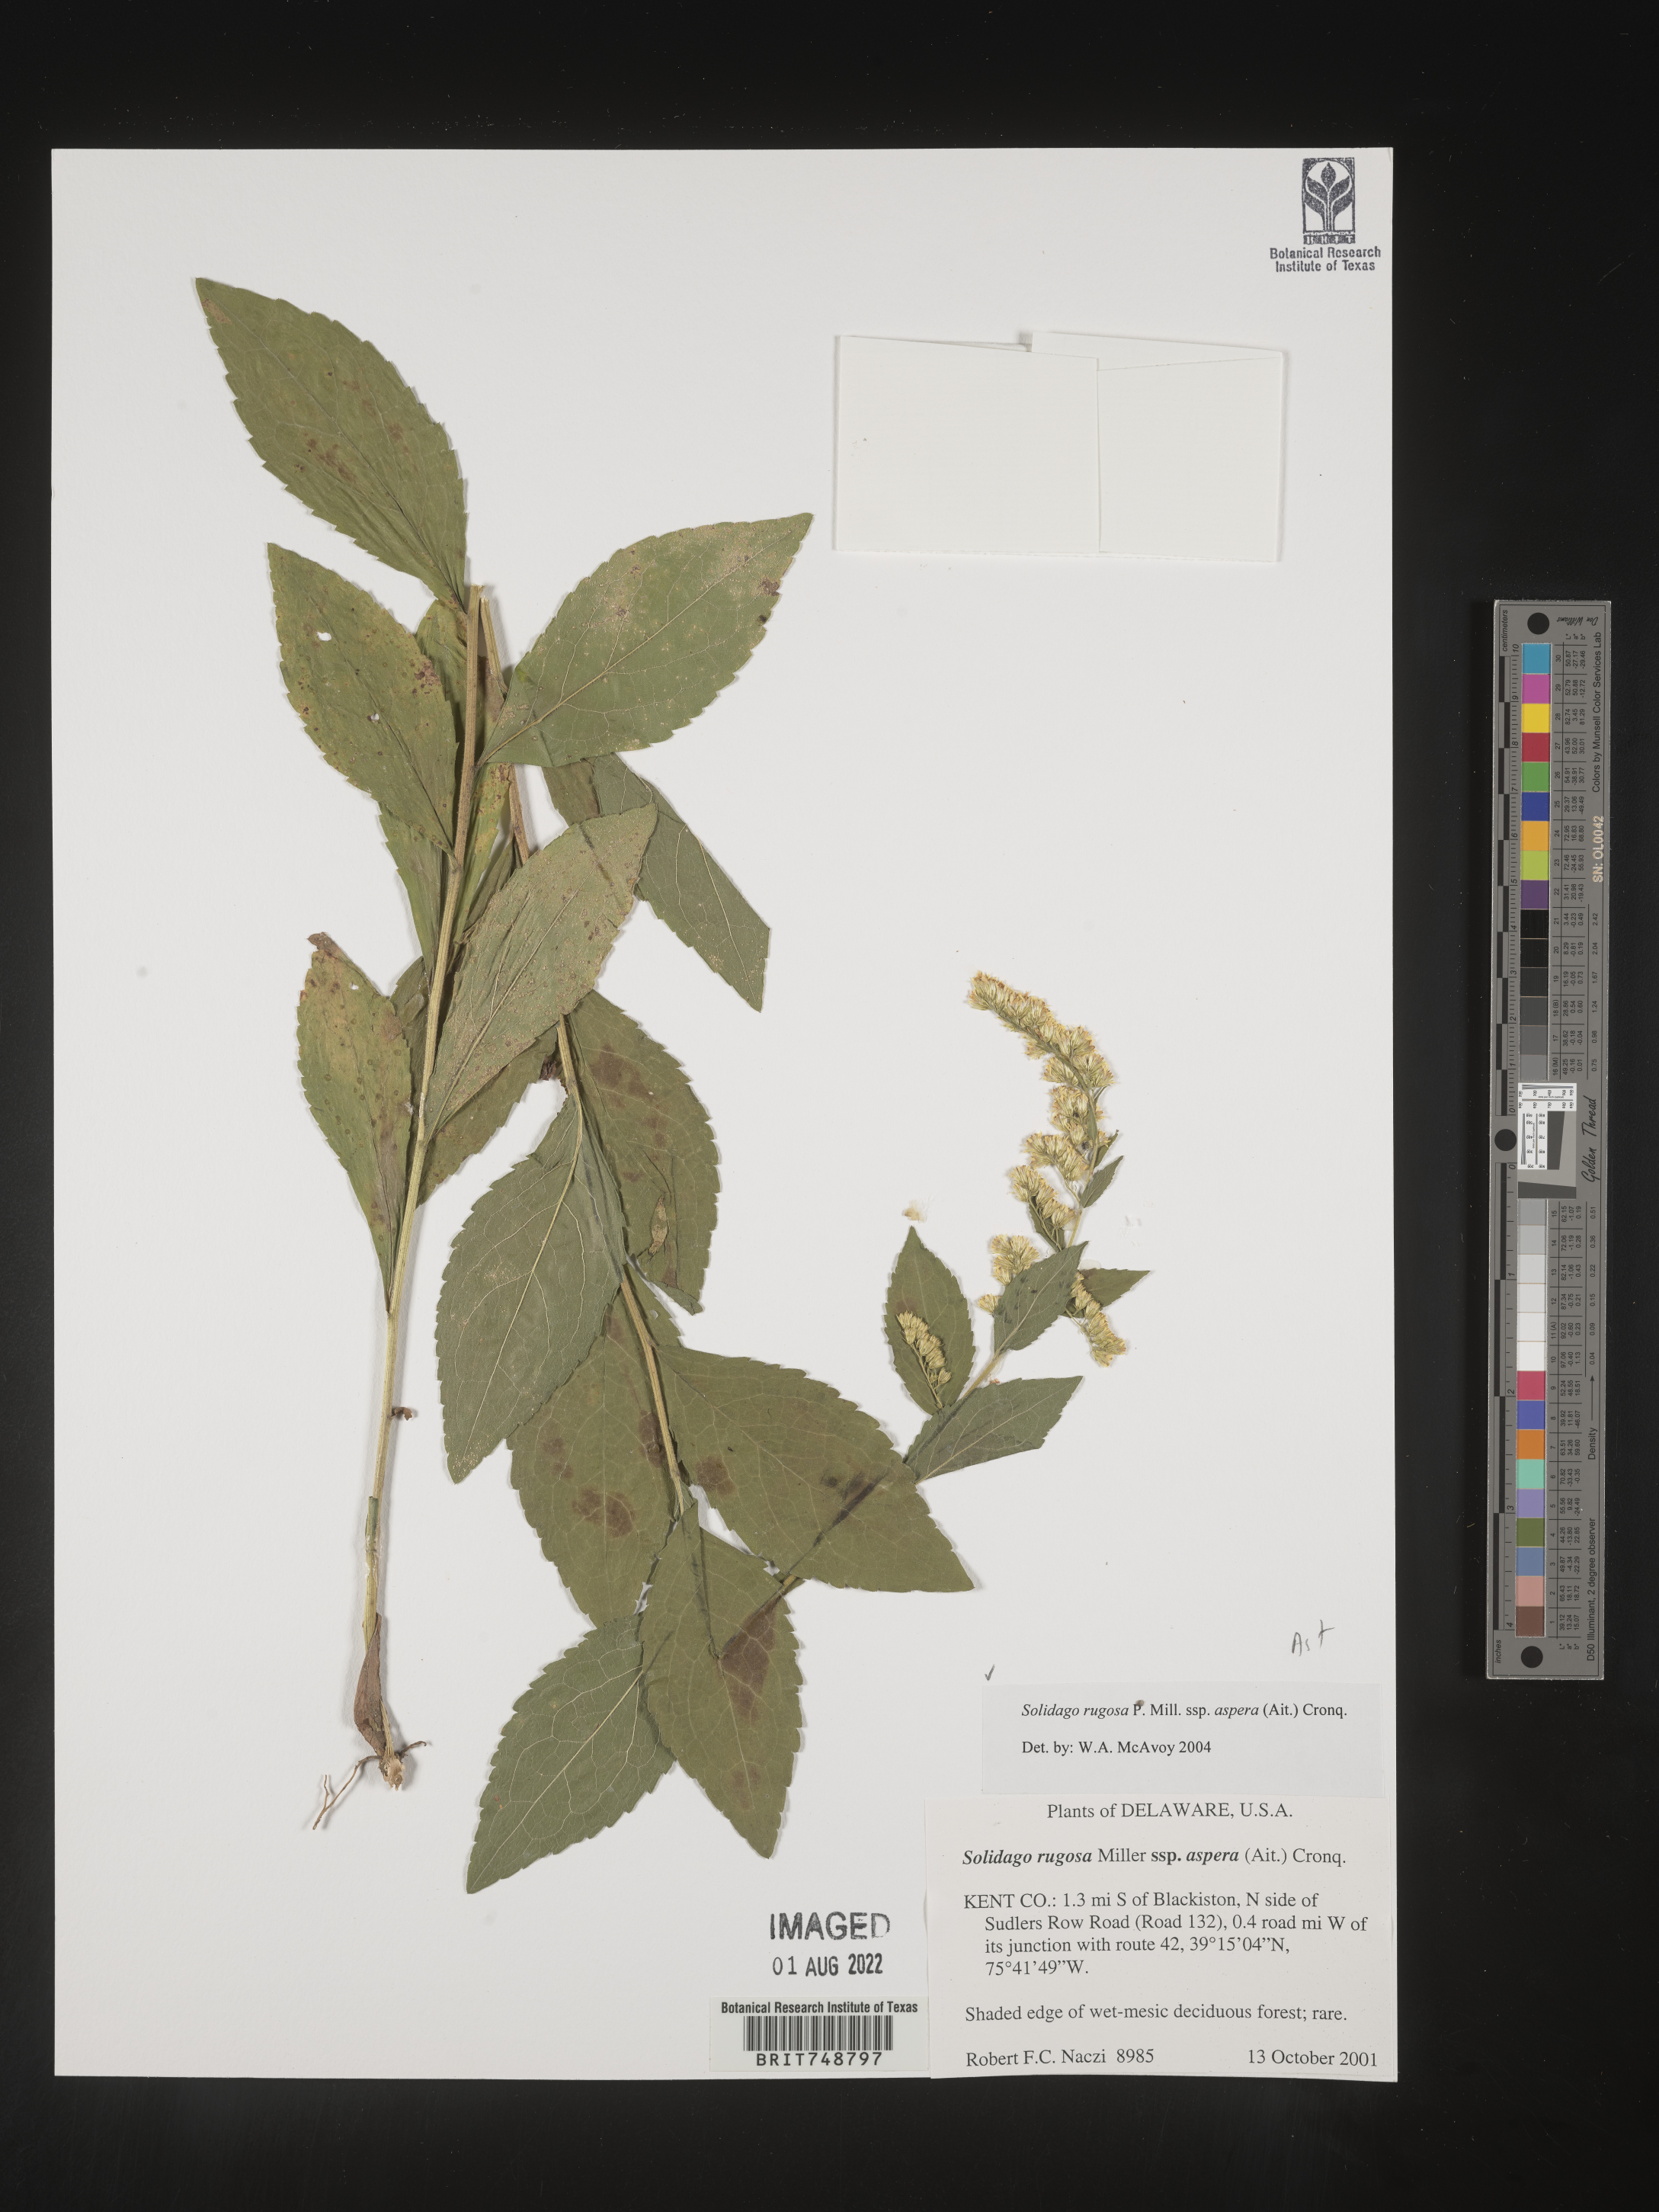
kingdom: Plantae
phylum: Tracheophyta
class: Magnoliopsida
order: Asterales
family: Asteraceae
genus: Solidago
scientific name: Solidago rugosa
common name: Rough-stemmed goldenrod
